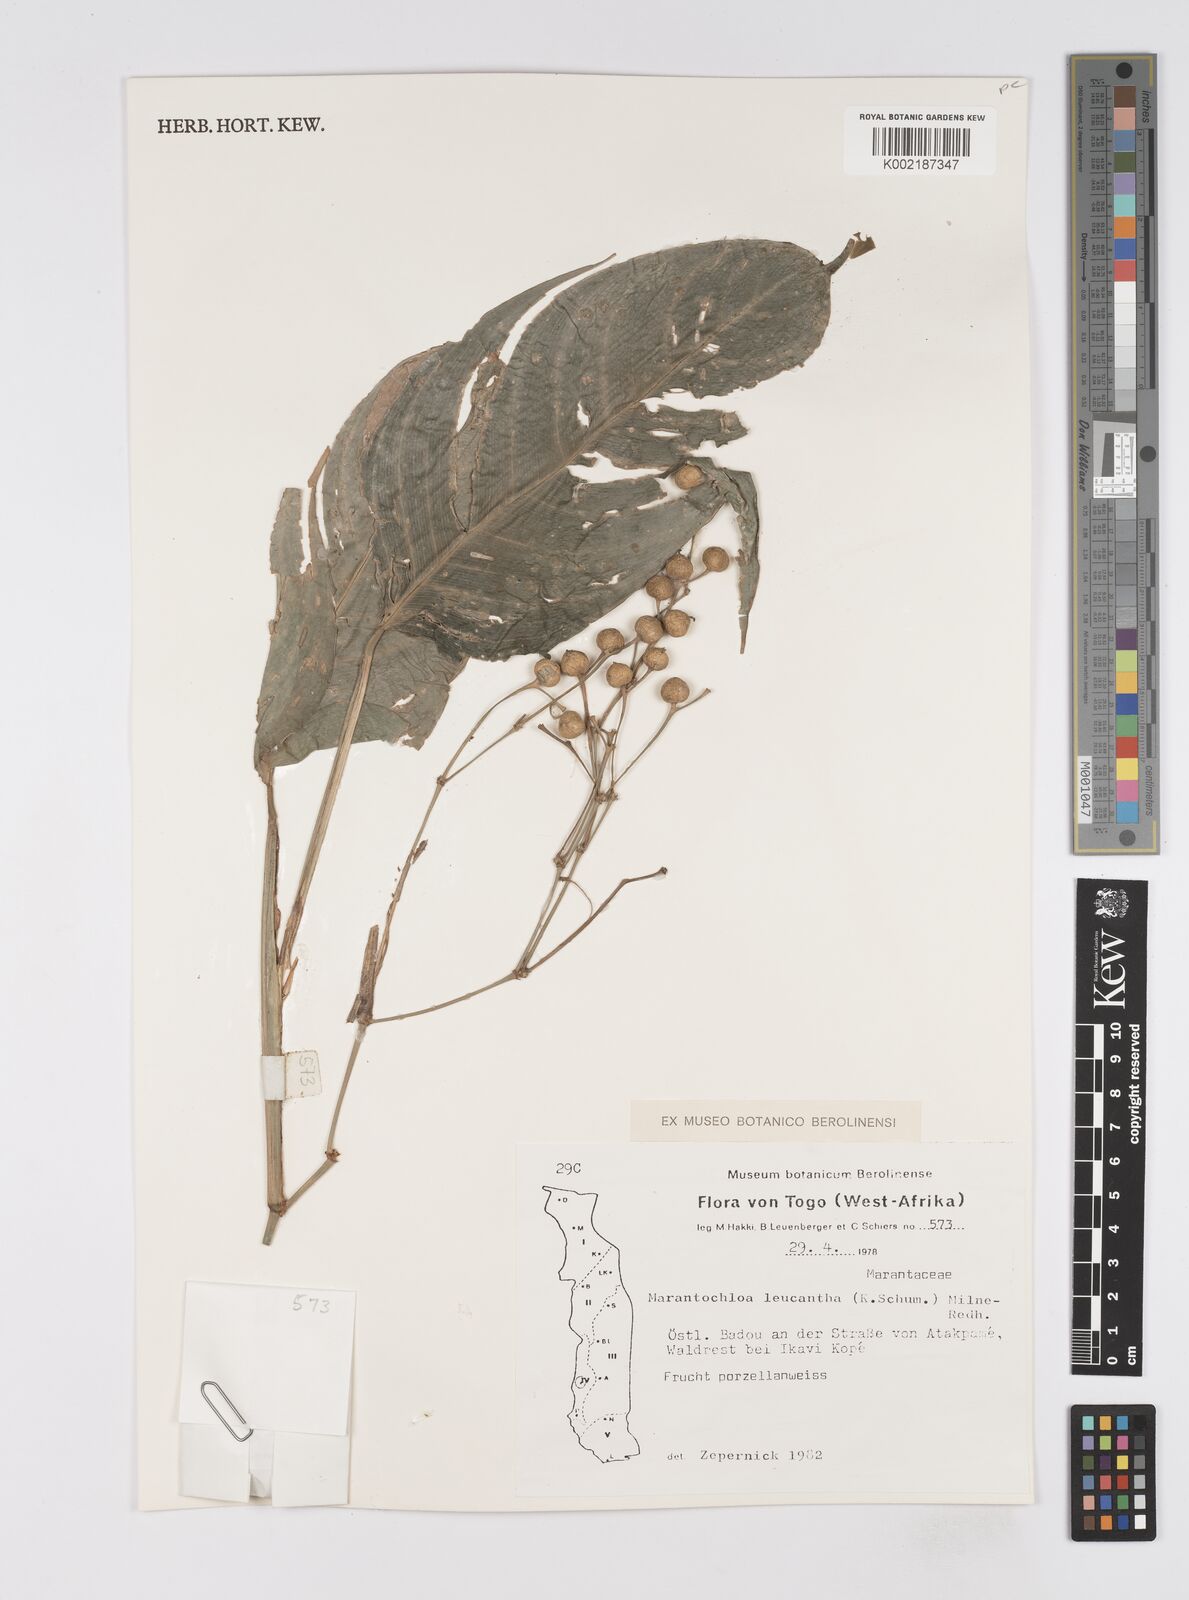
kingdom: Plantae
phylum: Tracheophyta
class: Liliopsida
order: Zingiberales
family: Marantaceae
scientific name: Marantaceae
